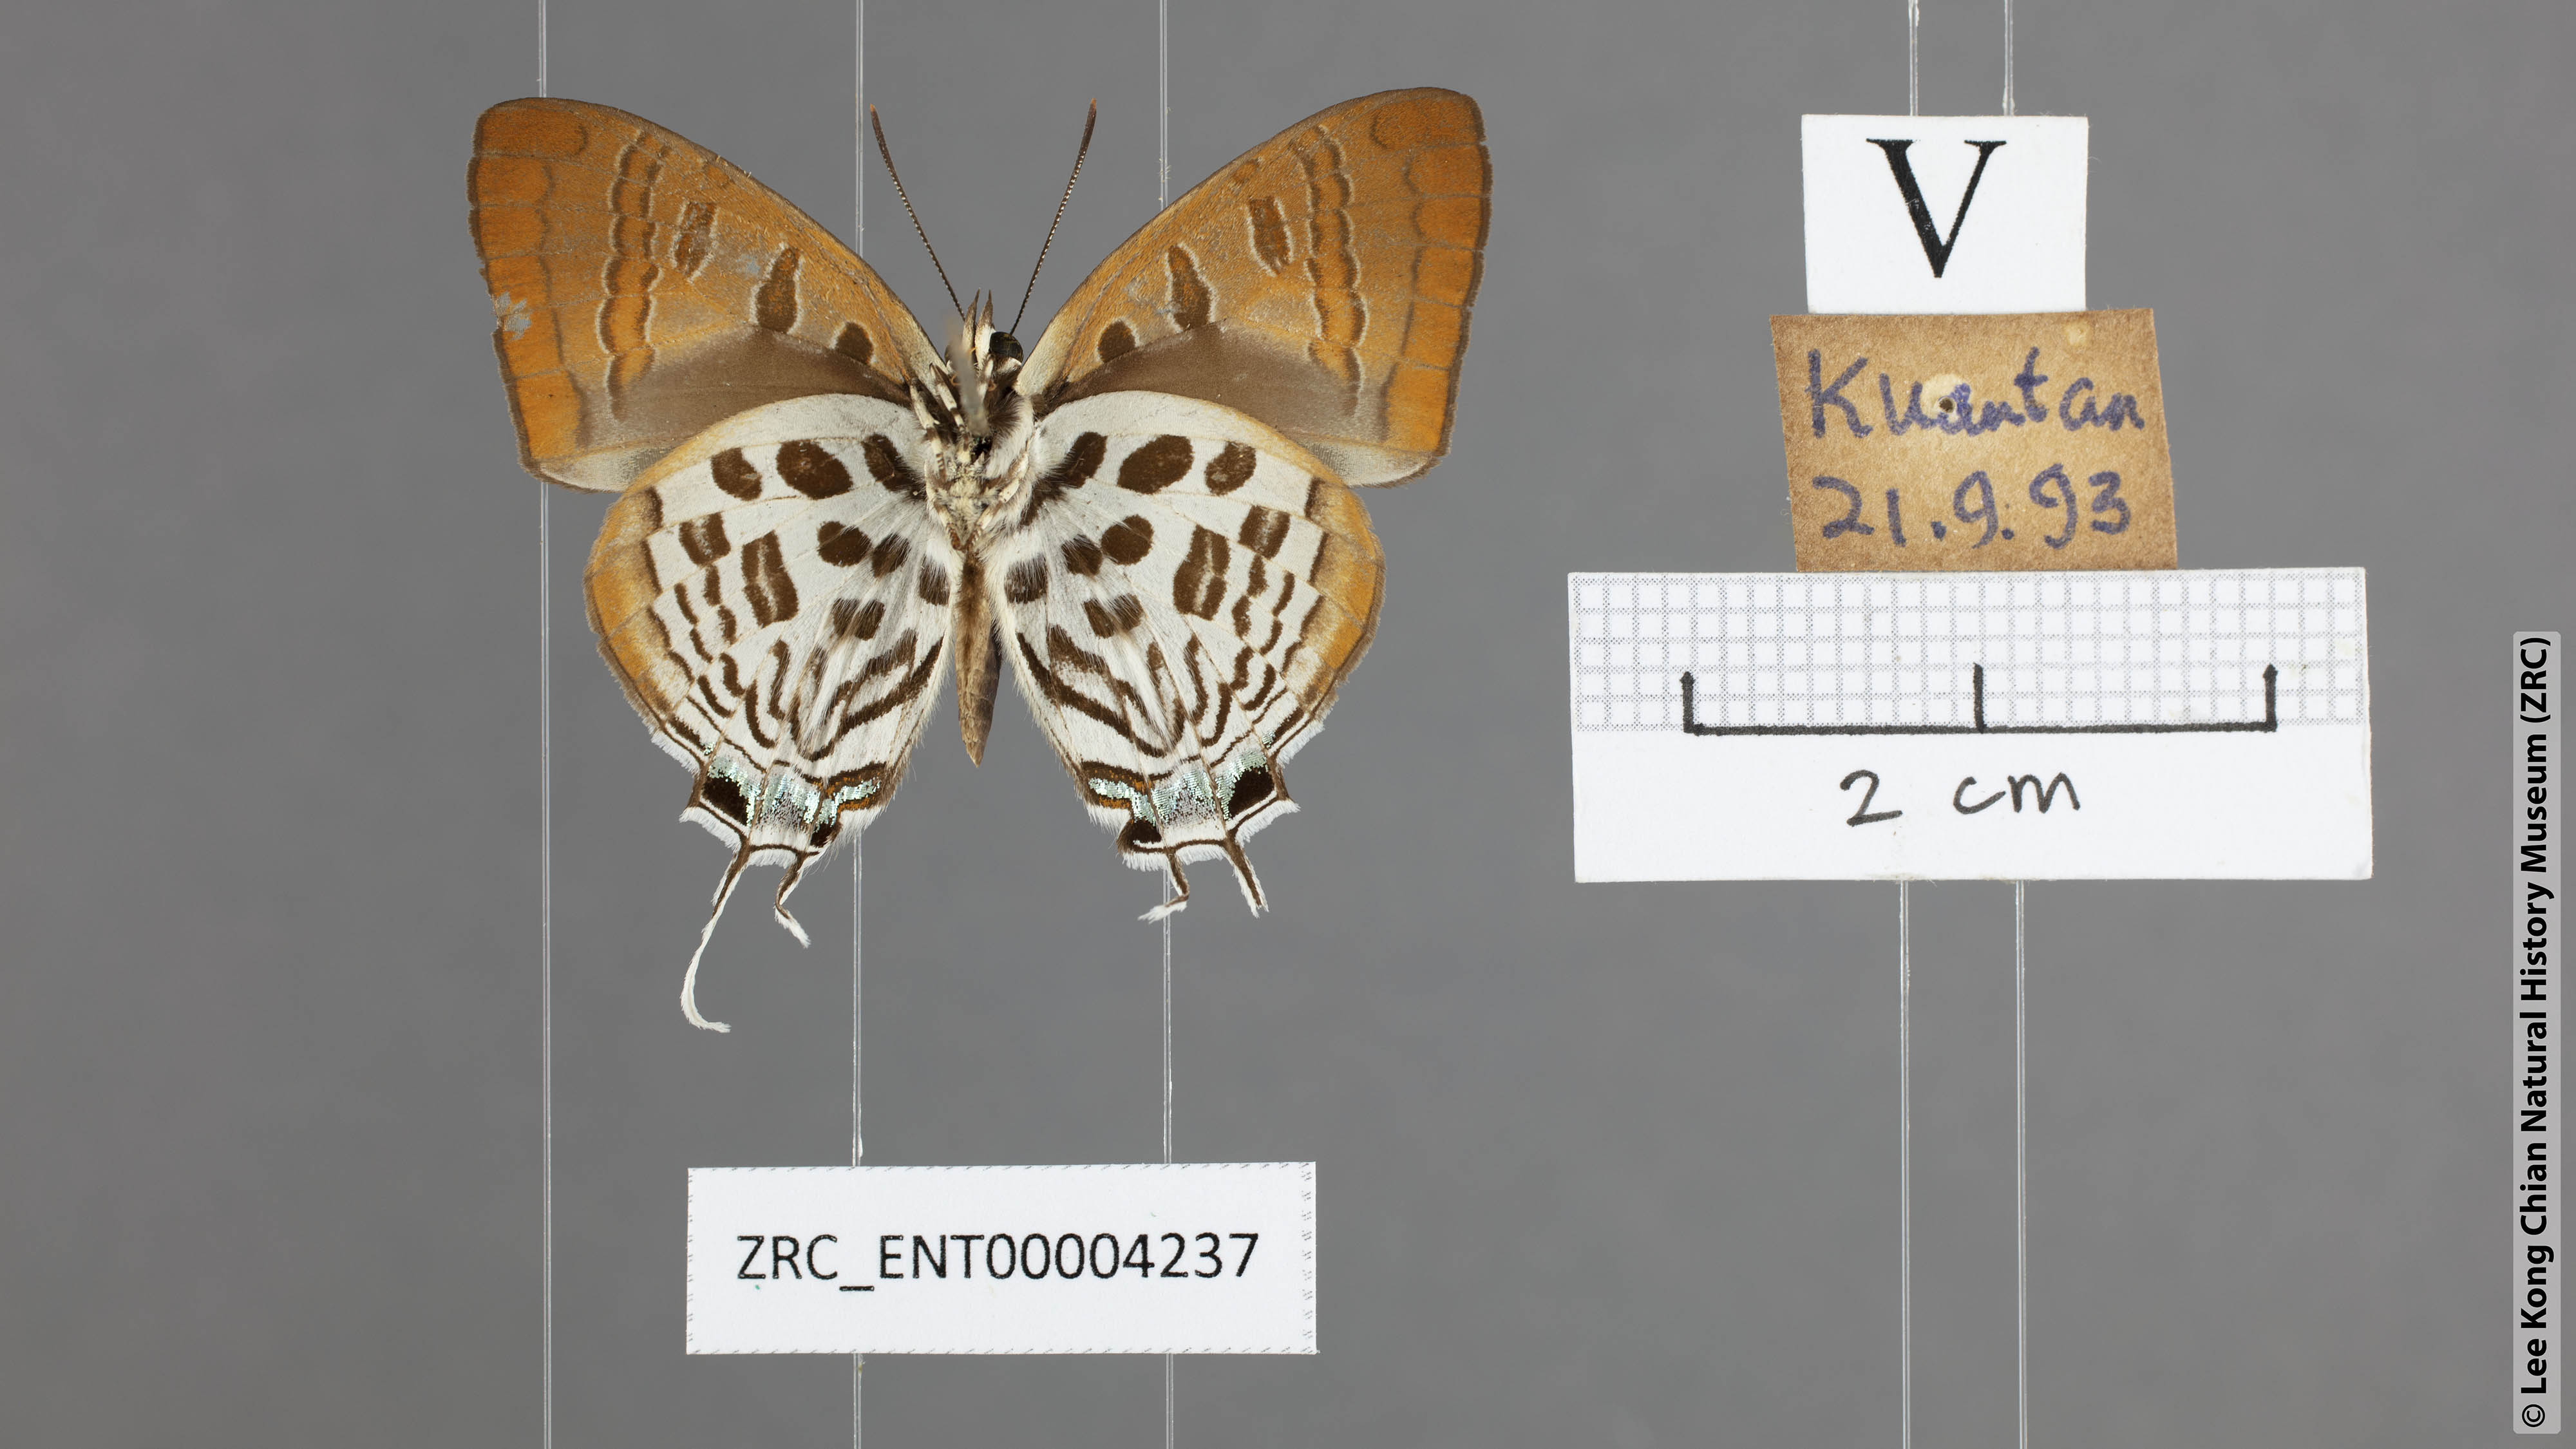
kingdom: Animalia
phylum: Arthropoda
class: Insecta
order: Lepidoptera
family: Lycaenidae
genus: Drupadia
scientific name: Drupadia theda
